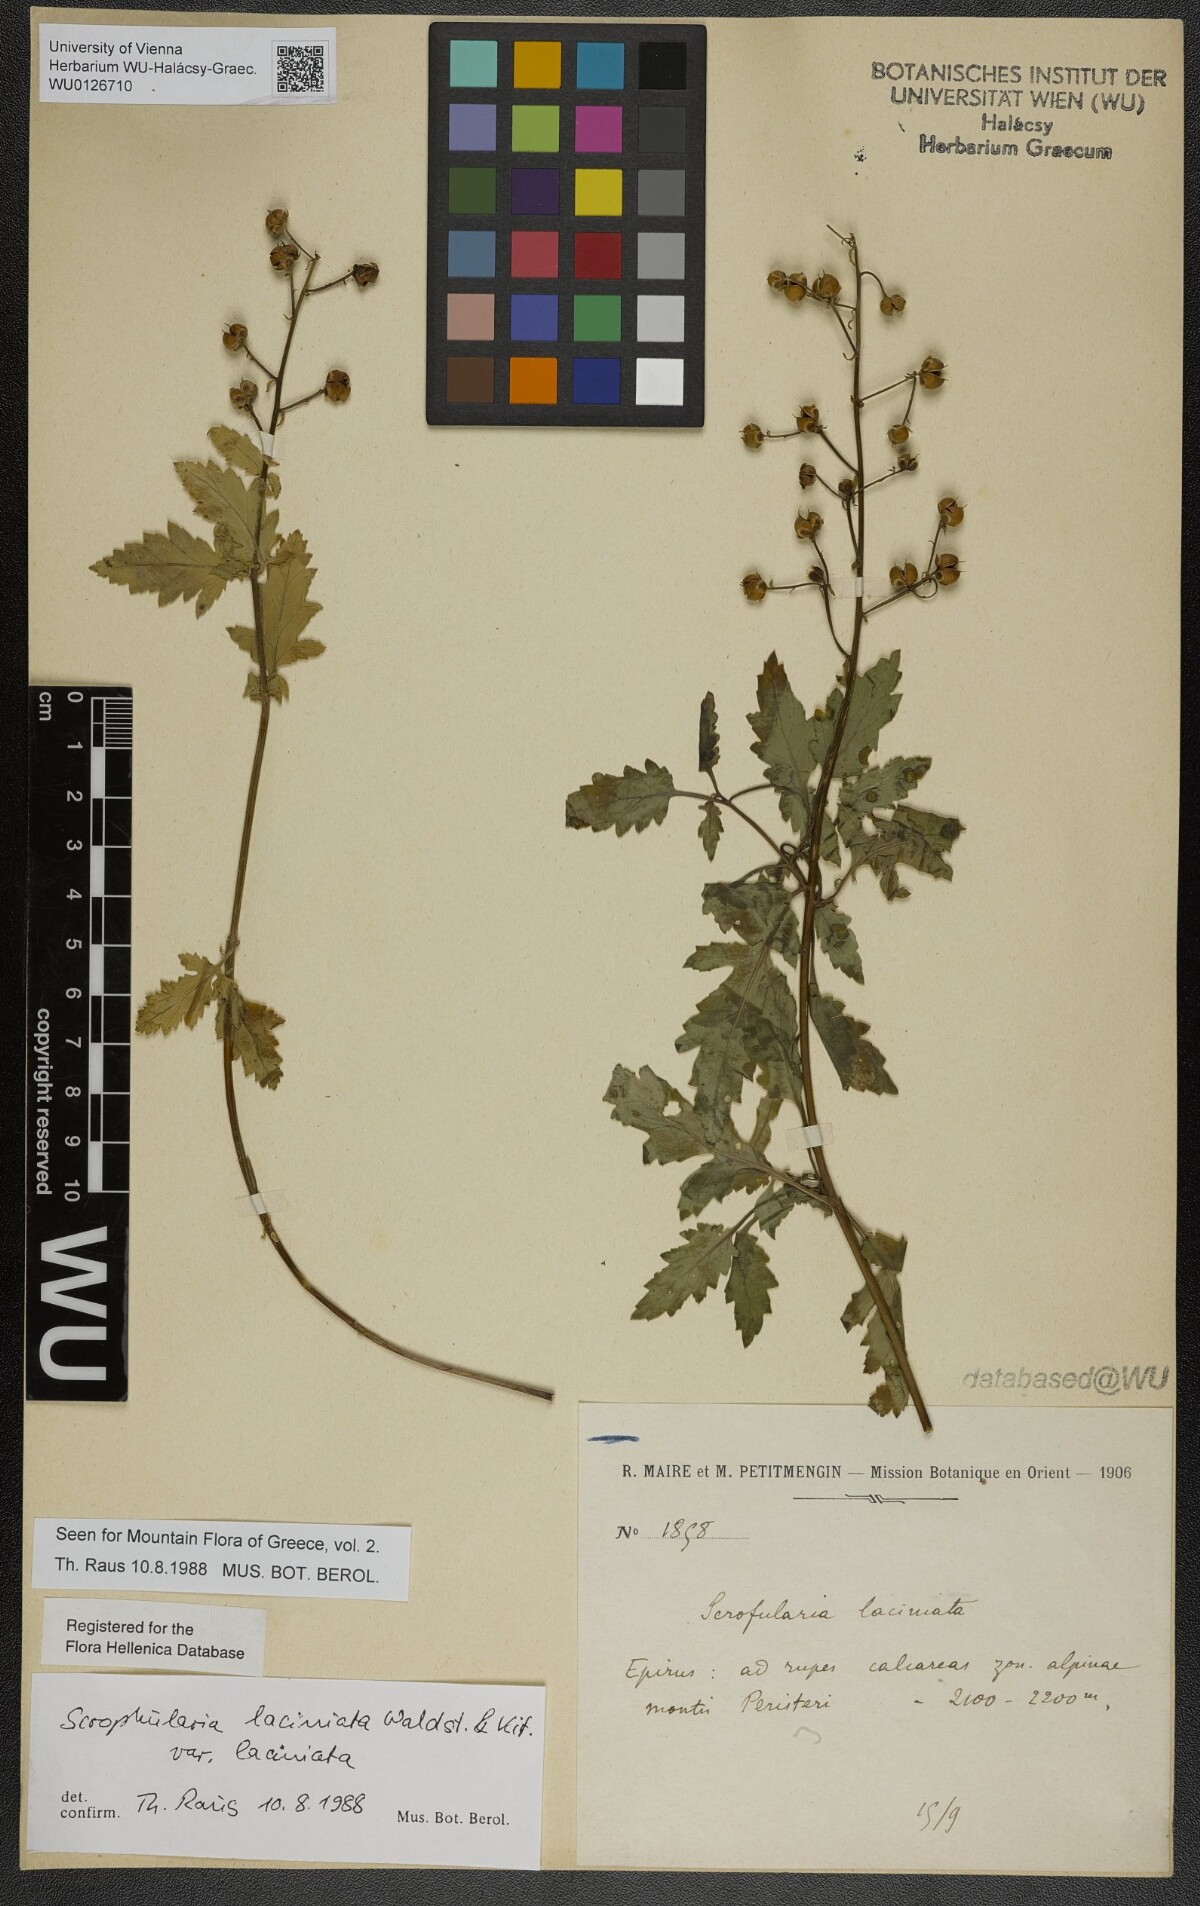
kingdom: Plantae
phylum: Tracheophyta
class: Magnoliopsida
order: Lamiales
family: Scrophulariaceae
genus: Scrophularia
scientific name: Scrophularia laciniata
